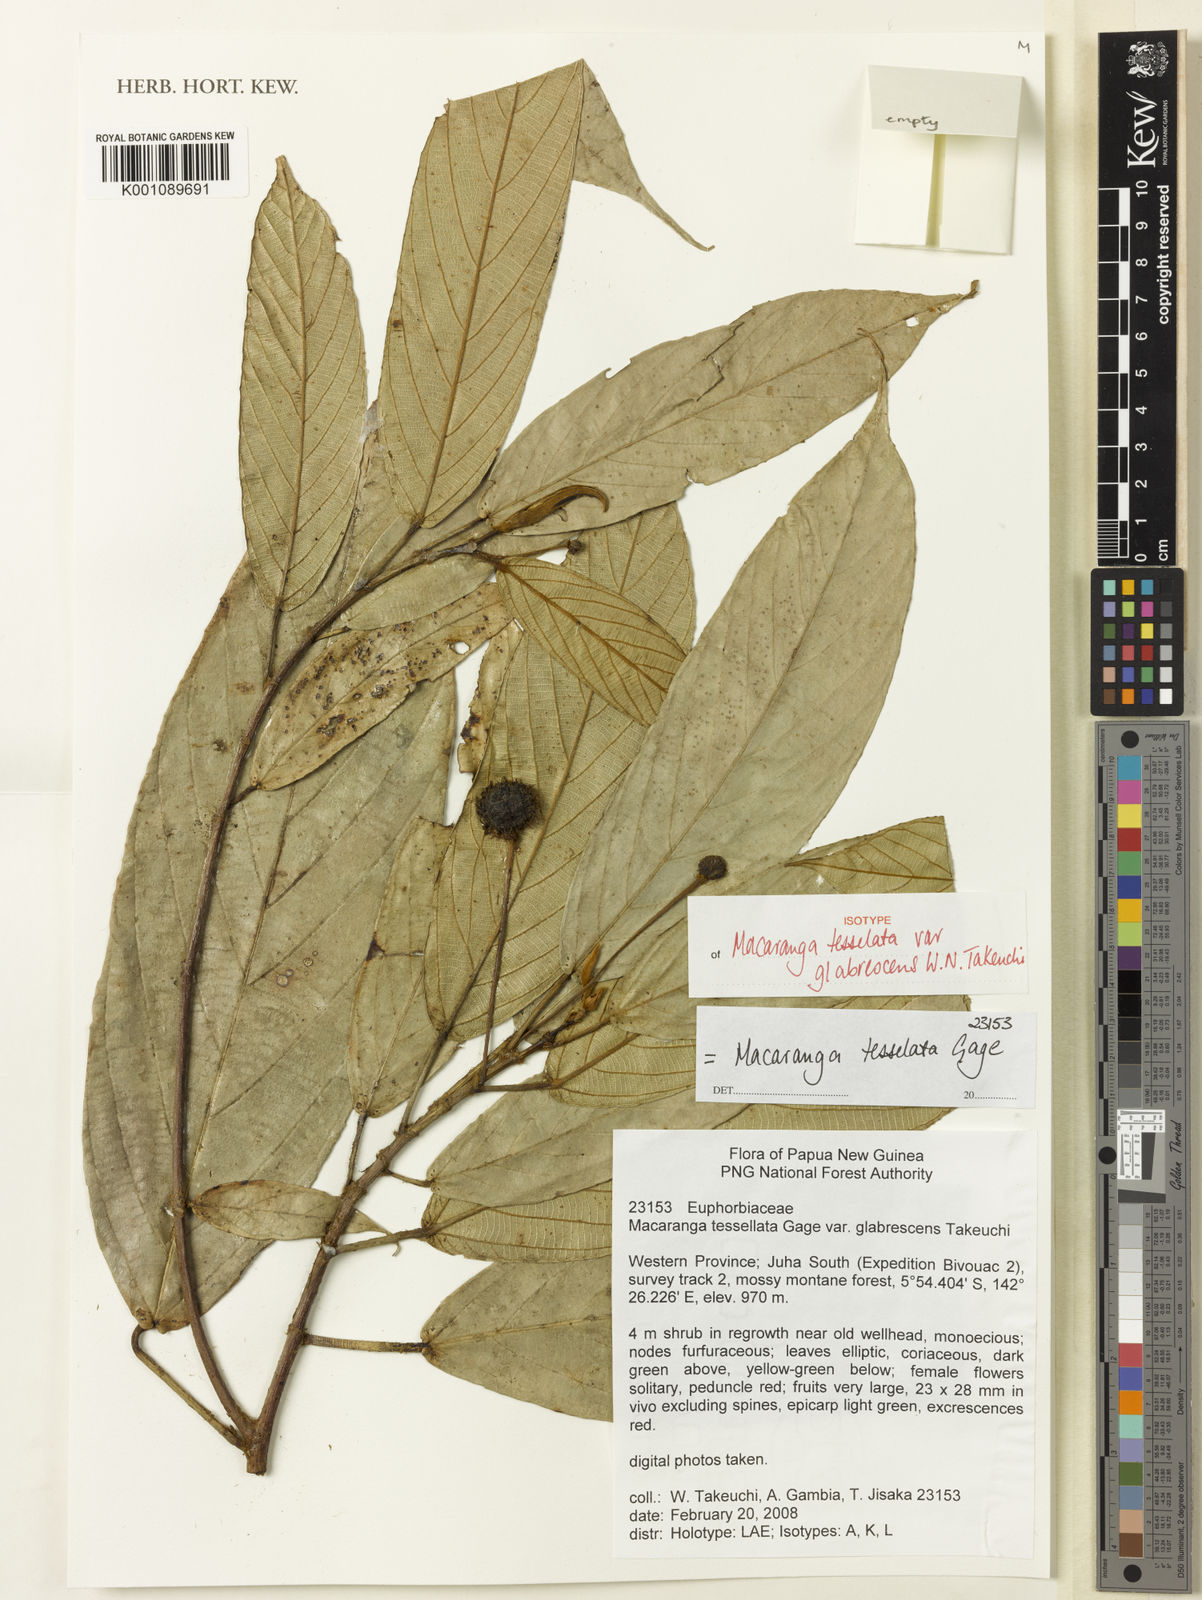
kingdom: Plantae
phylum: Tracheophyta
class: Magnoliopsida
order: Malpighiales
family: Euphorbiaceae
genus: Macaranga
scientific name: Macaranga tessellata
